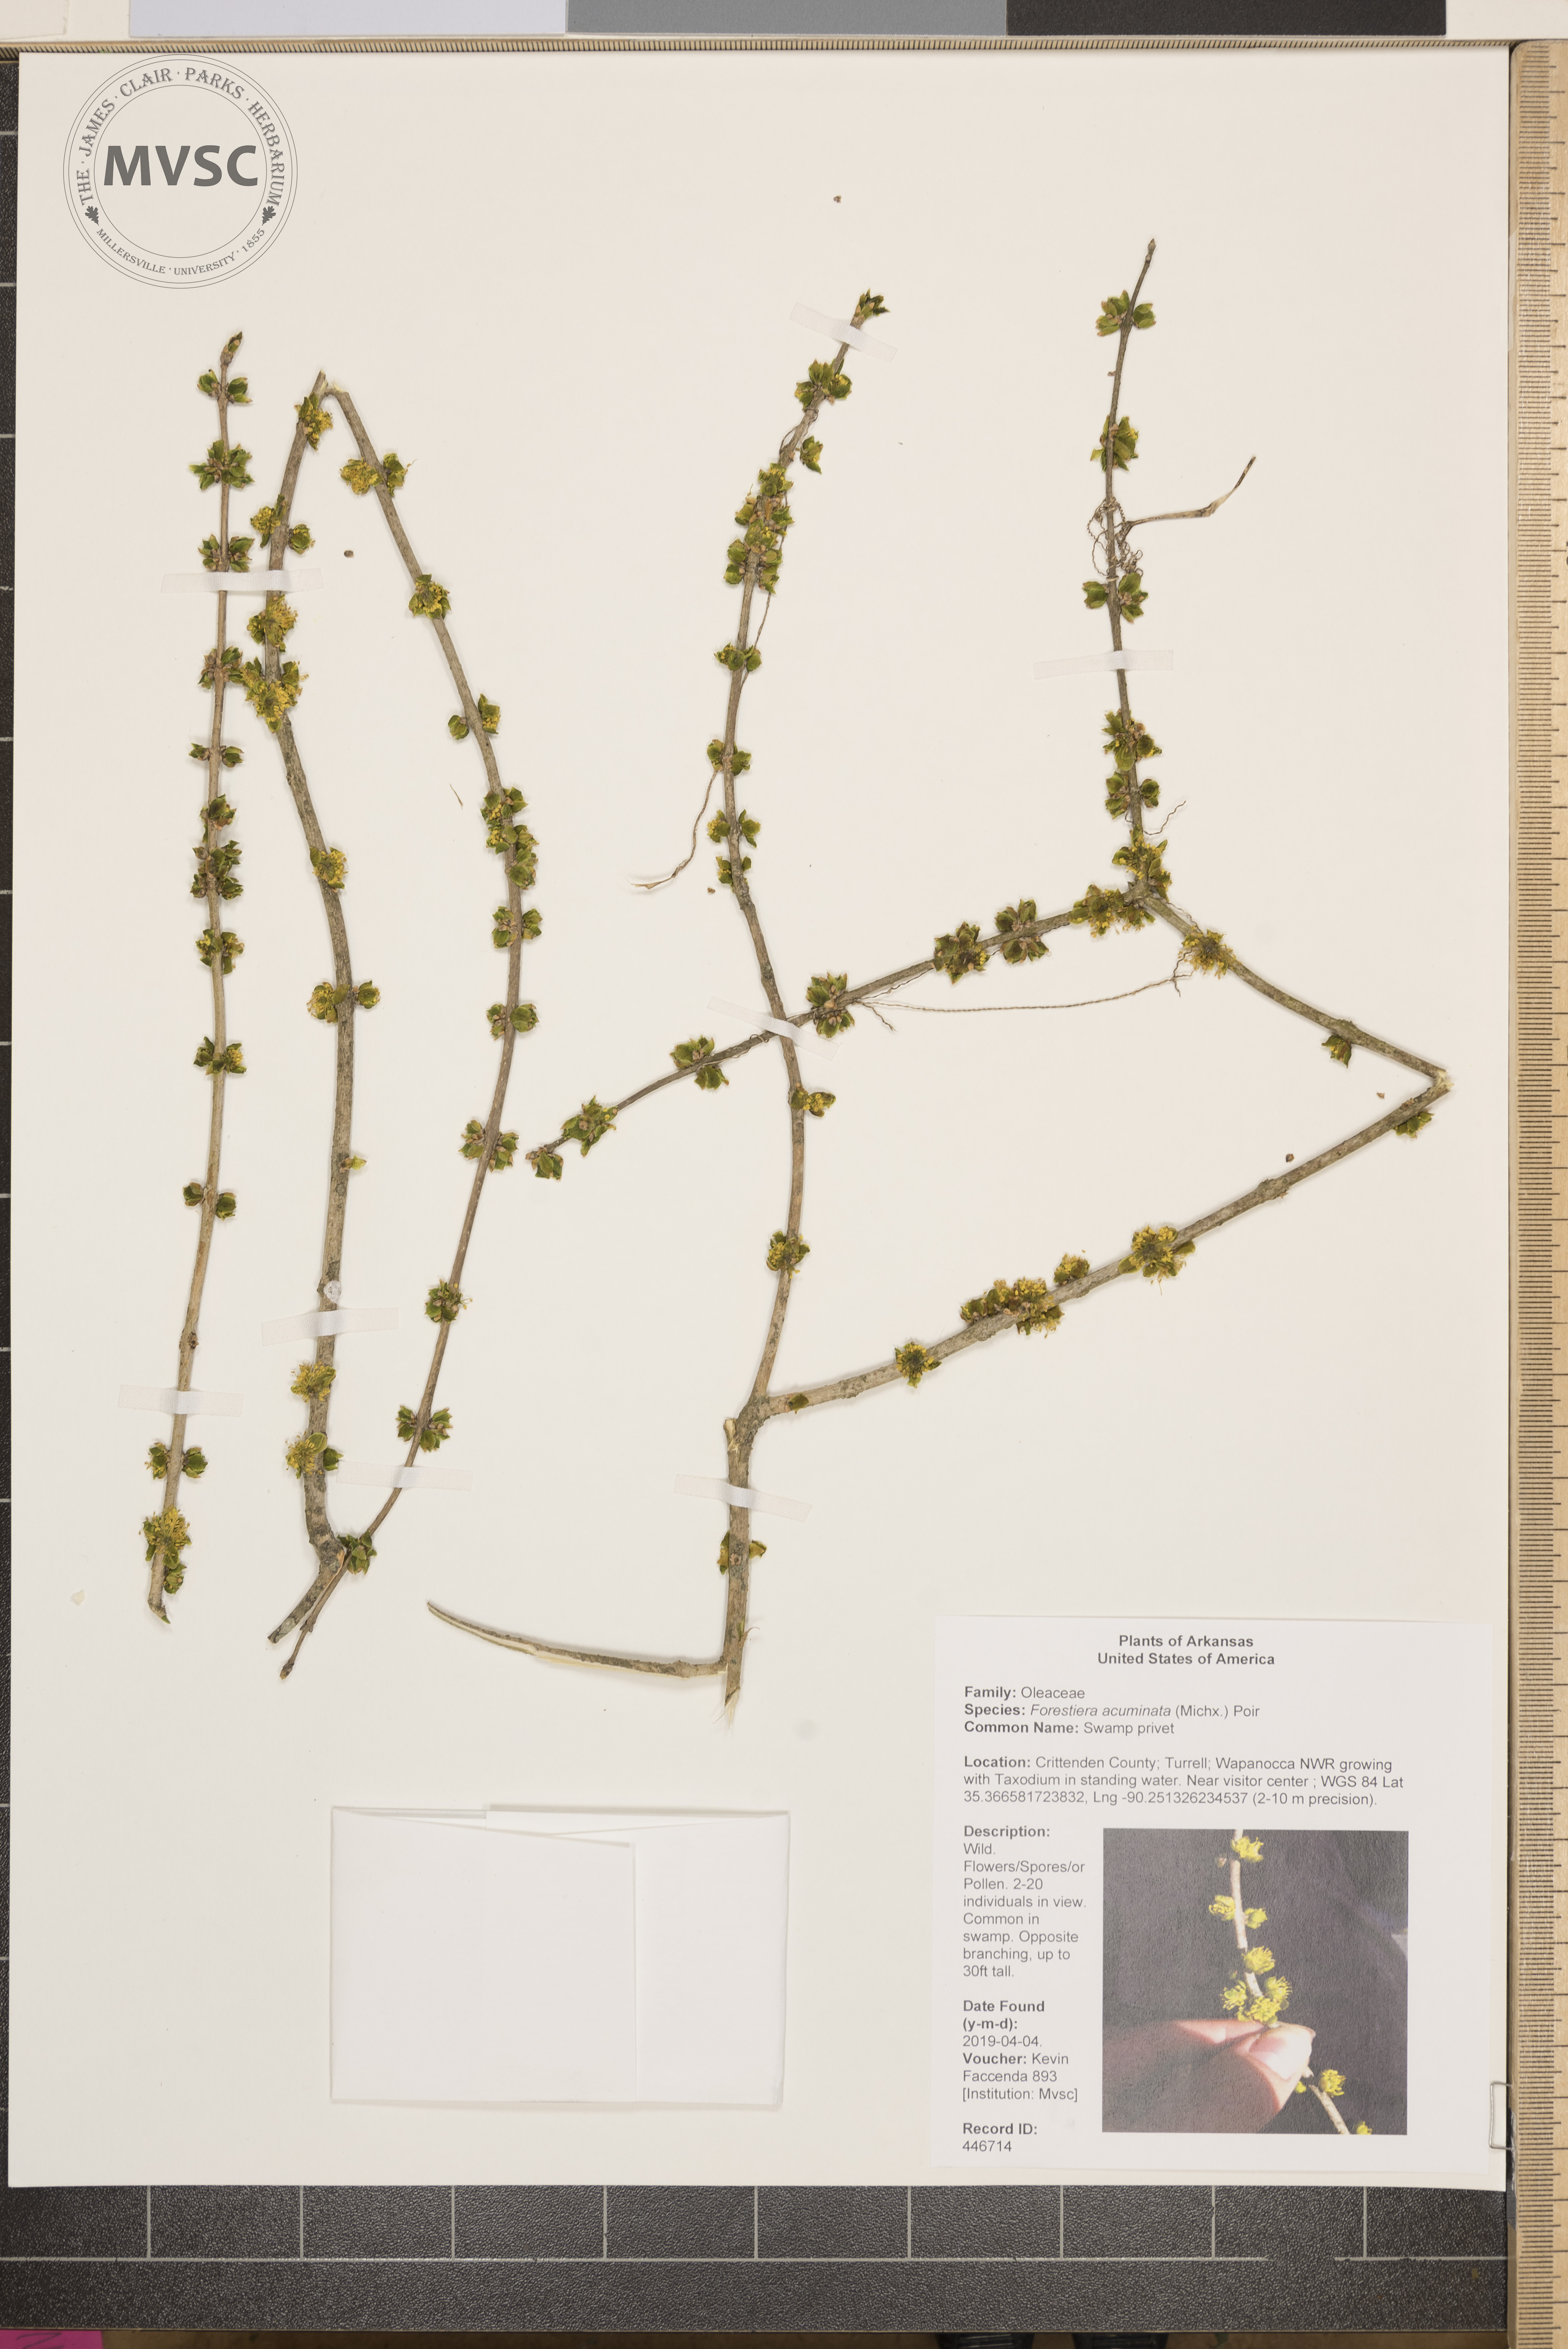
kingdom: Plantae
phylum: Tracheophyta
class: Magnoliopsida
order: Lamiales
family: Oleaceae
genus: Forestiera
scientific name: Forestiera acuminata
